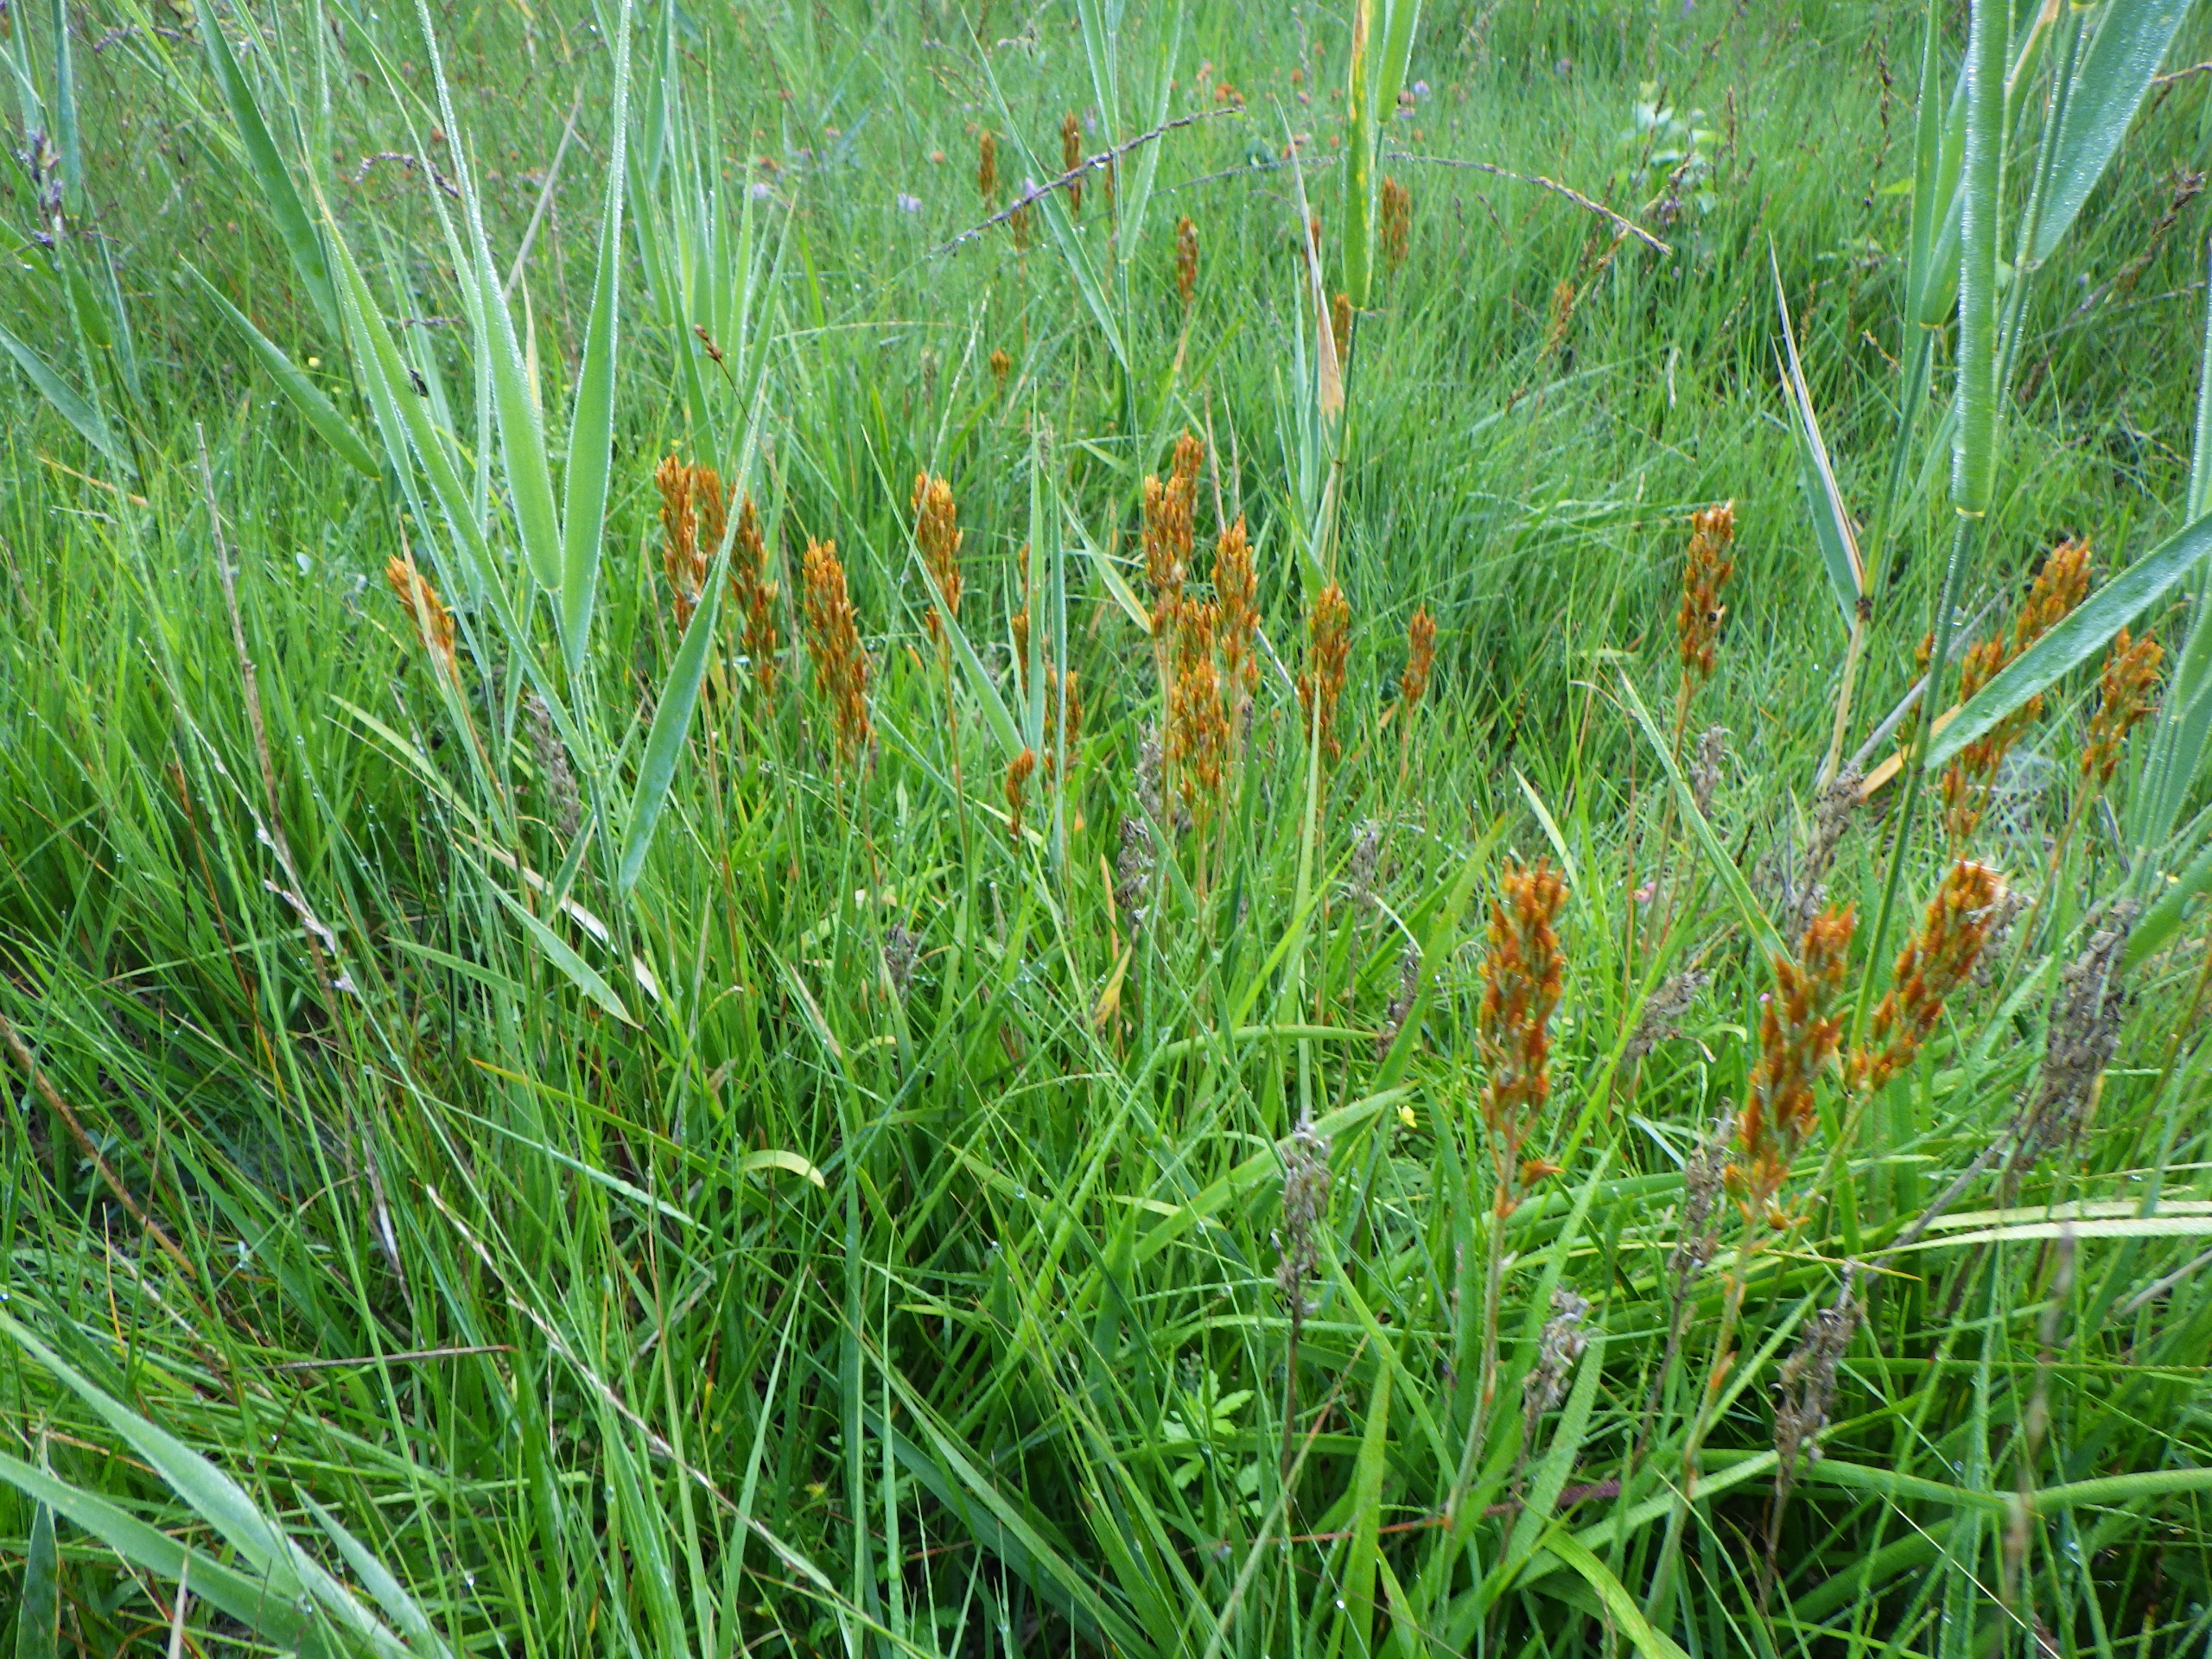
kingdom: Plantae
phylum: Tracheophyta
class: Liliopsida
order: Dioscoreales
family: Nartheciaceae
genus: Narthecium
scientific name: Narthecium ossifragum
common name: Benbræk
